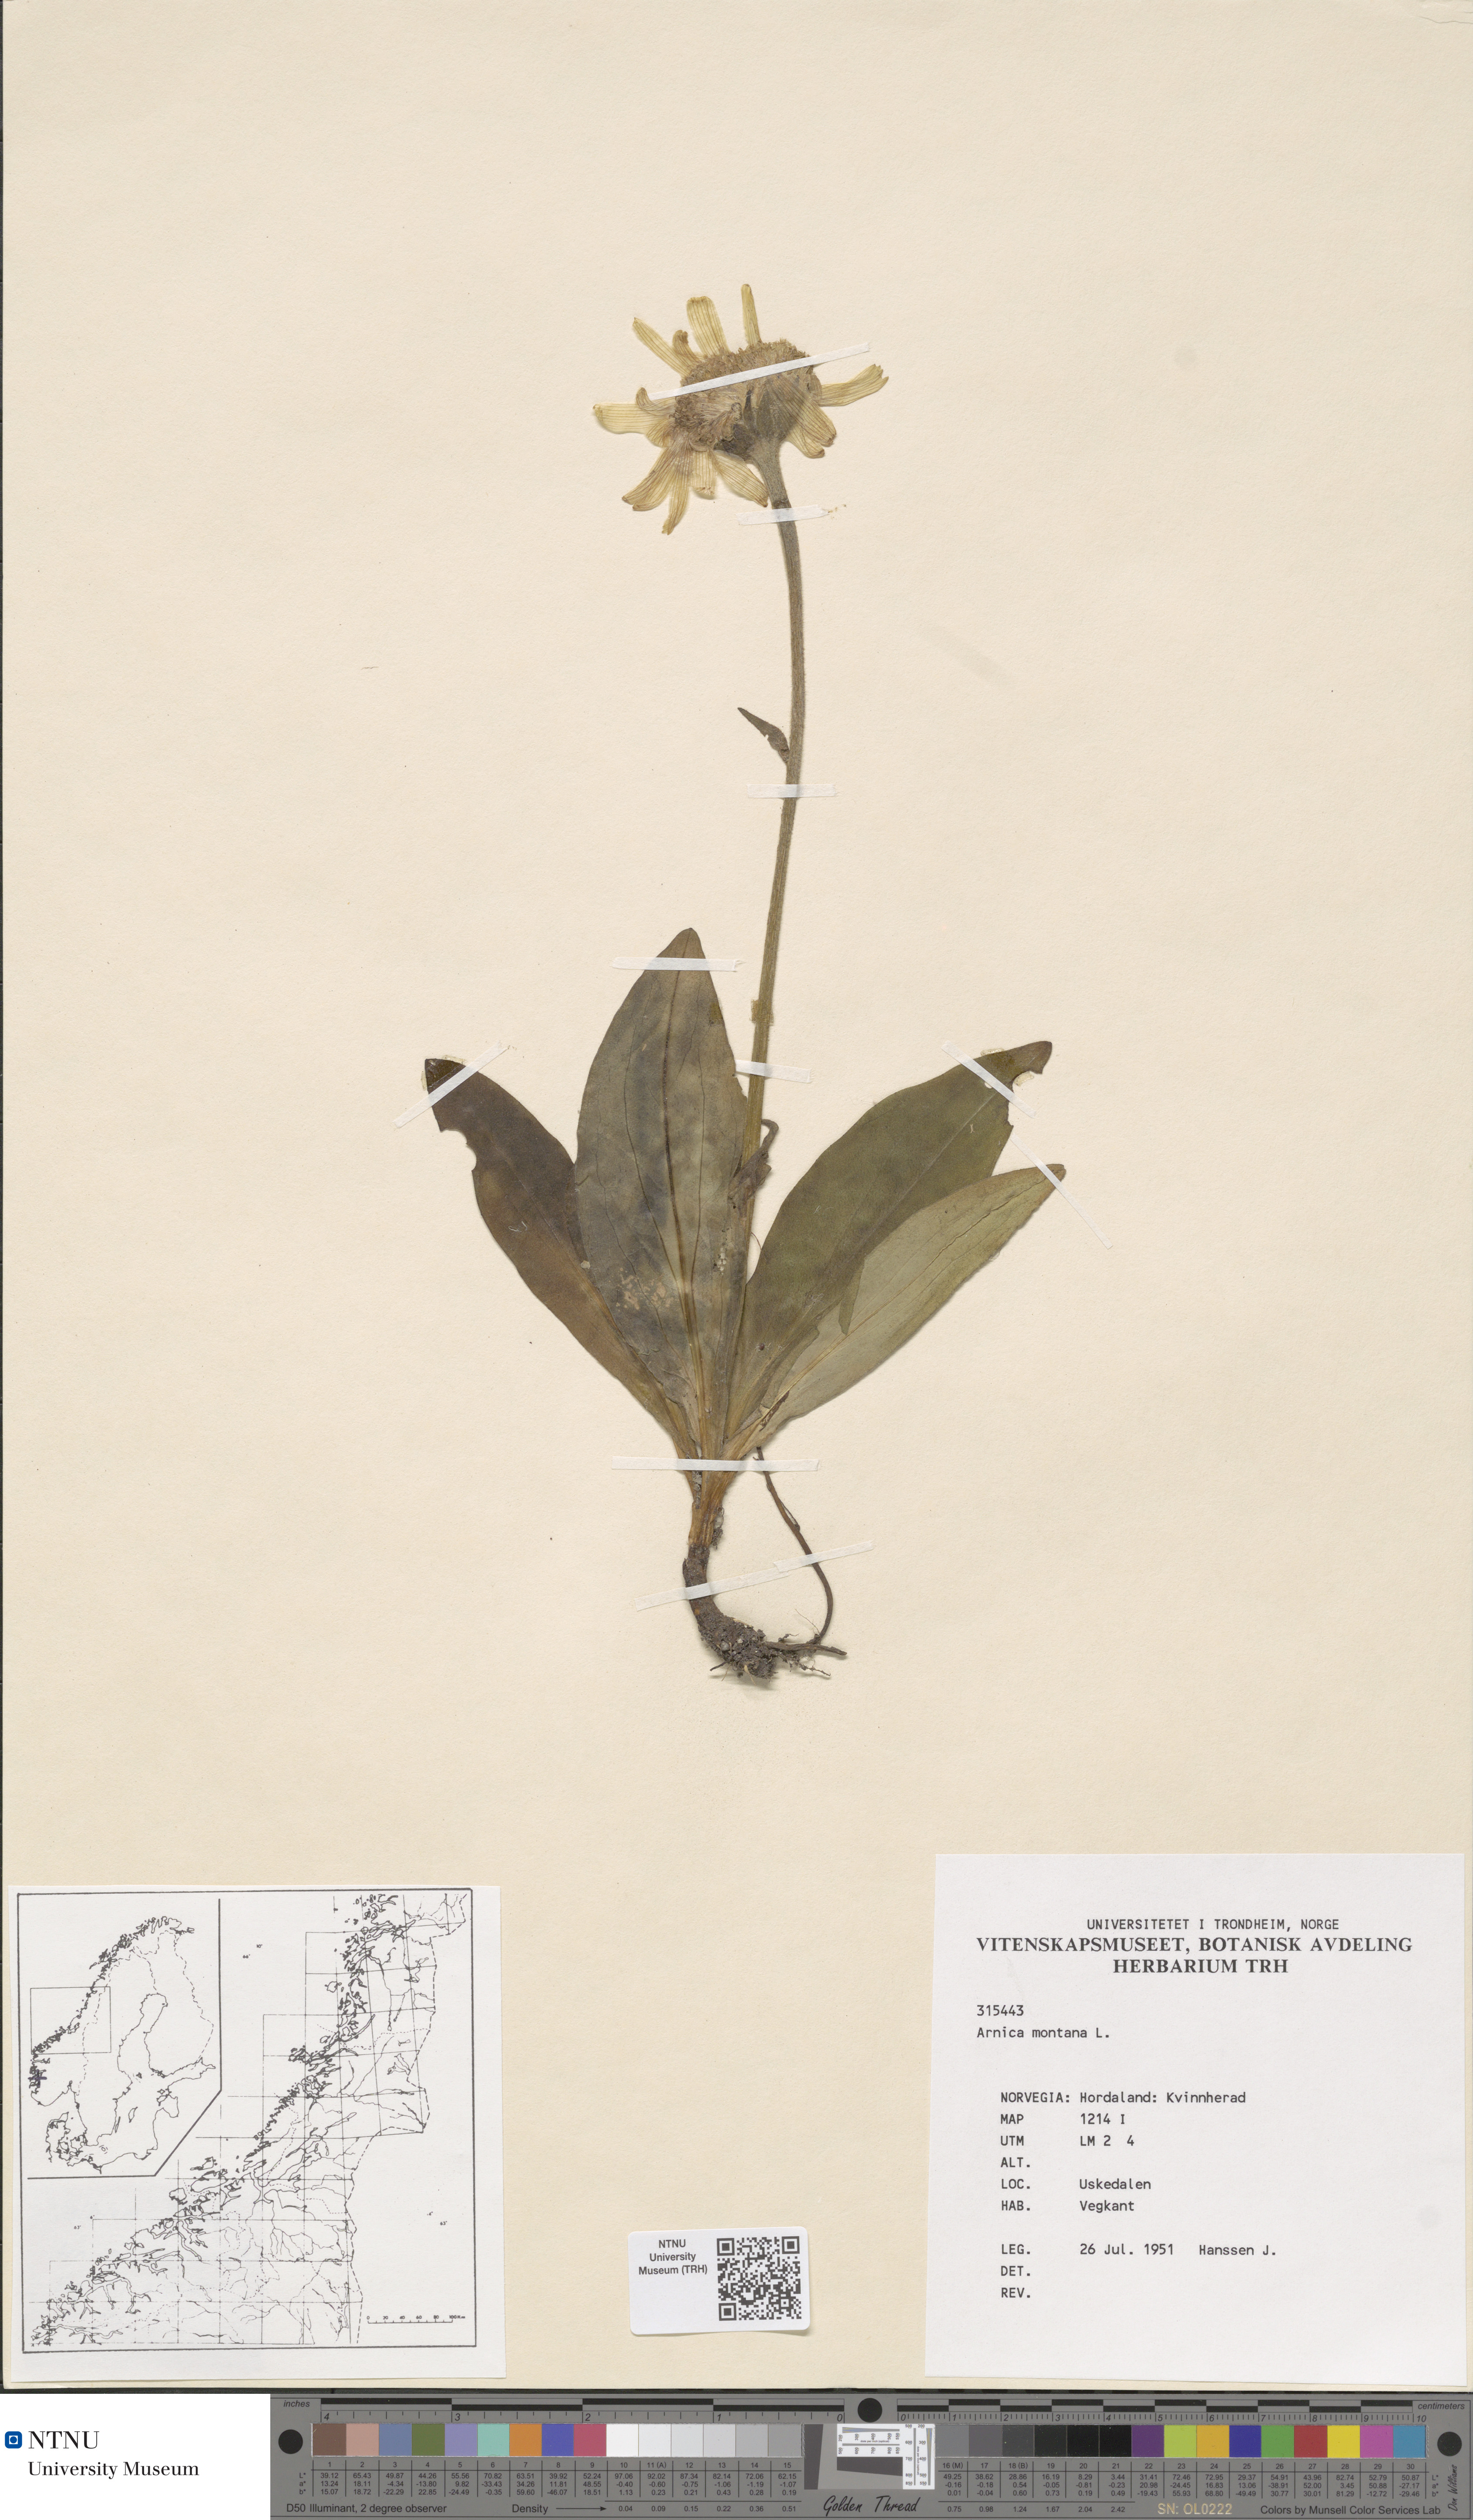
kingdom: Plantae
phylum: Tracheophyta
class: Magnoliopsida
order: Asterales
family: Asteraceae
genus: Arnica
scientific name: Arnica montana
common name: Leopard's bane
